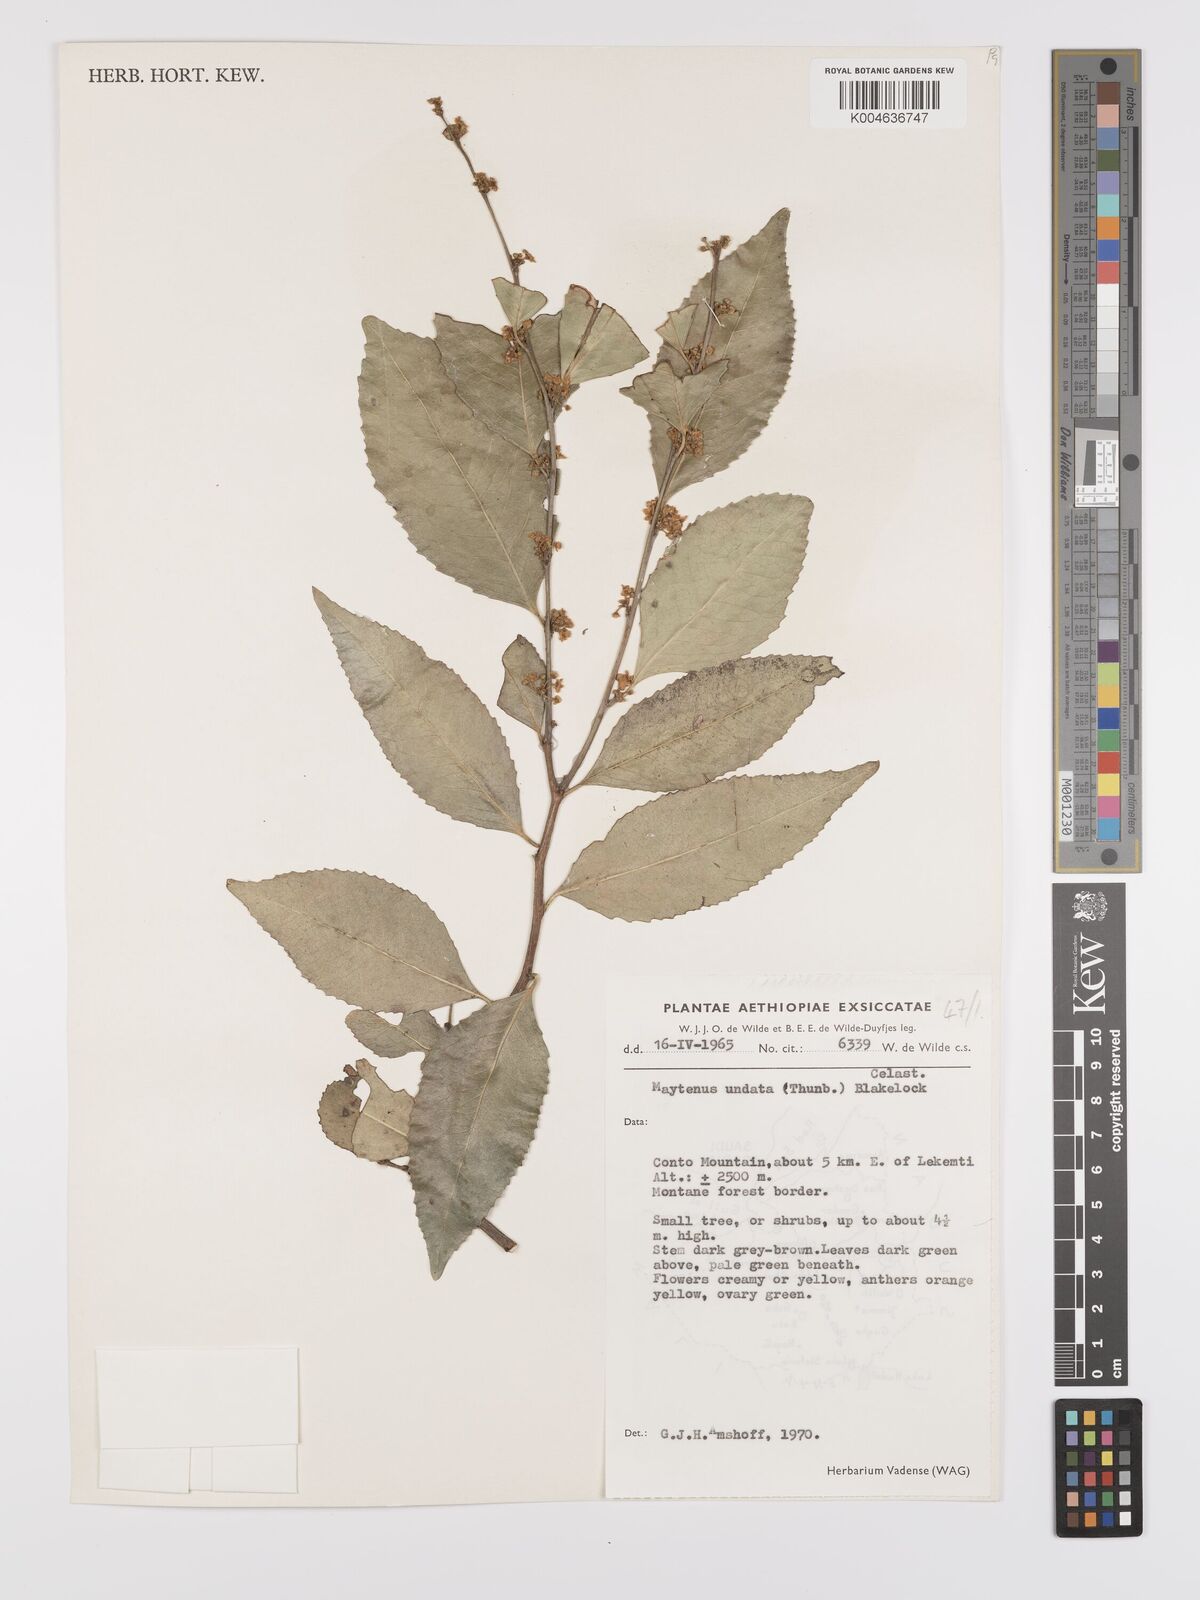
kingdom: Plantae
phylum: Tracheophyta
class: Magnoliopsida
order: Celastrales
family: Celastraceae
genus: Gymnosporia
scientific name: Gymnosporia undata
